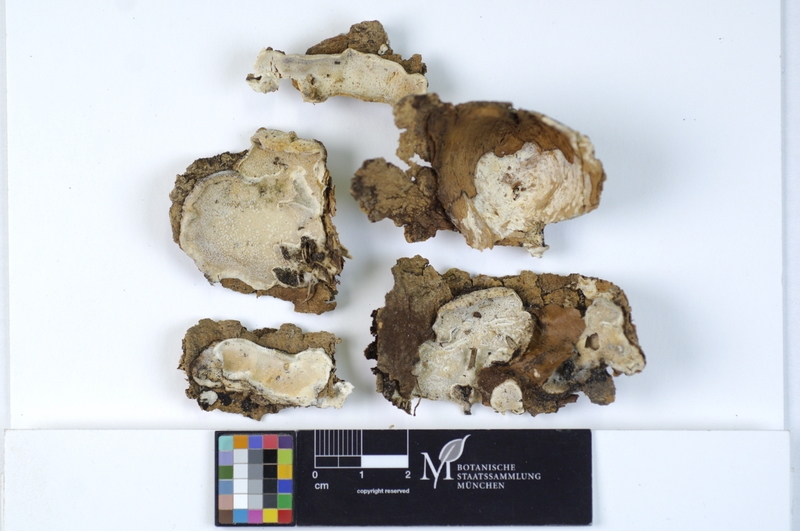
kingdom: Plantae
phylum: Tracheophyta
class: Magnoliopsida
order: Fagales
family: Betulaceae
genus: Alnus
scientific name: Alnus
